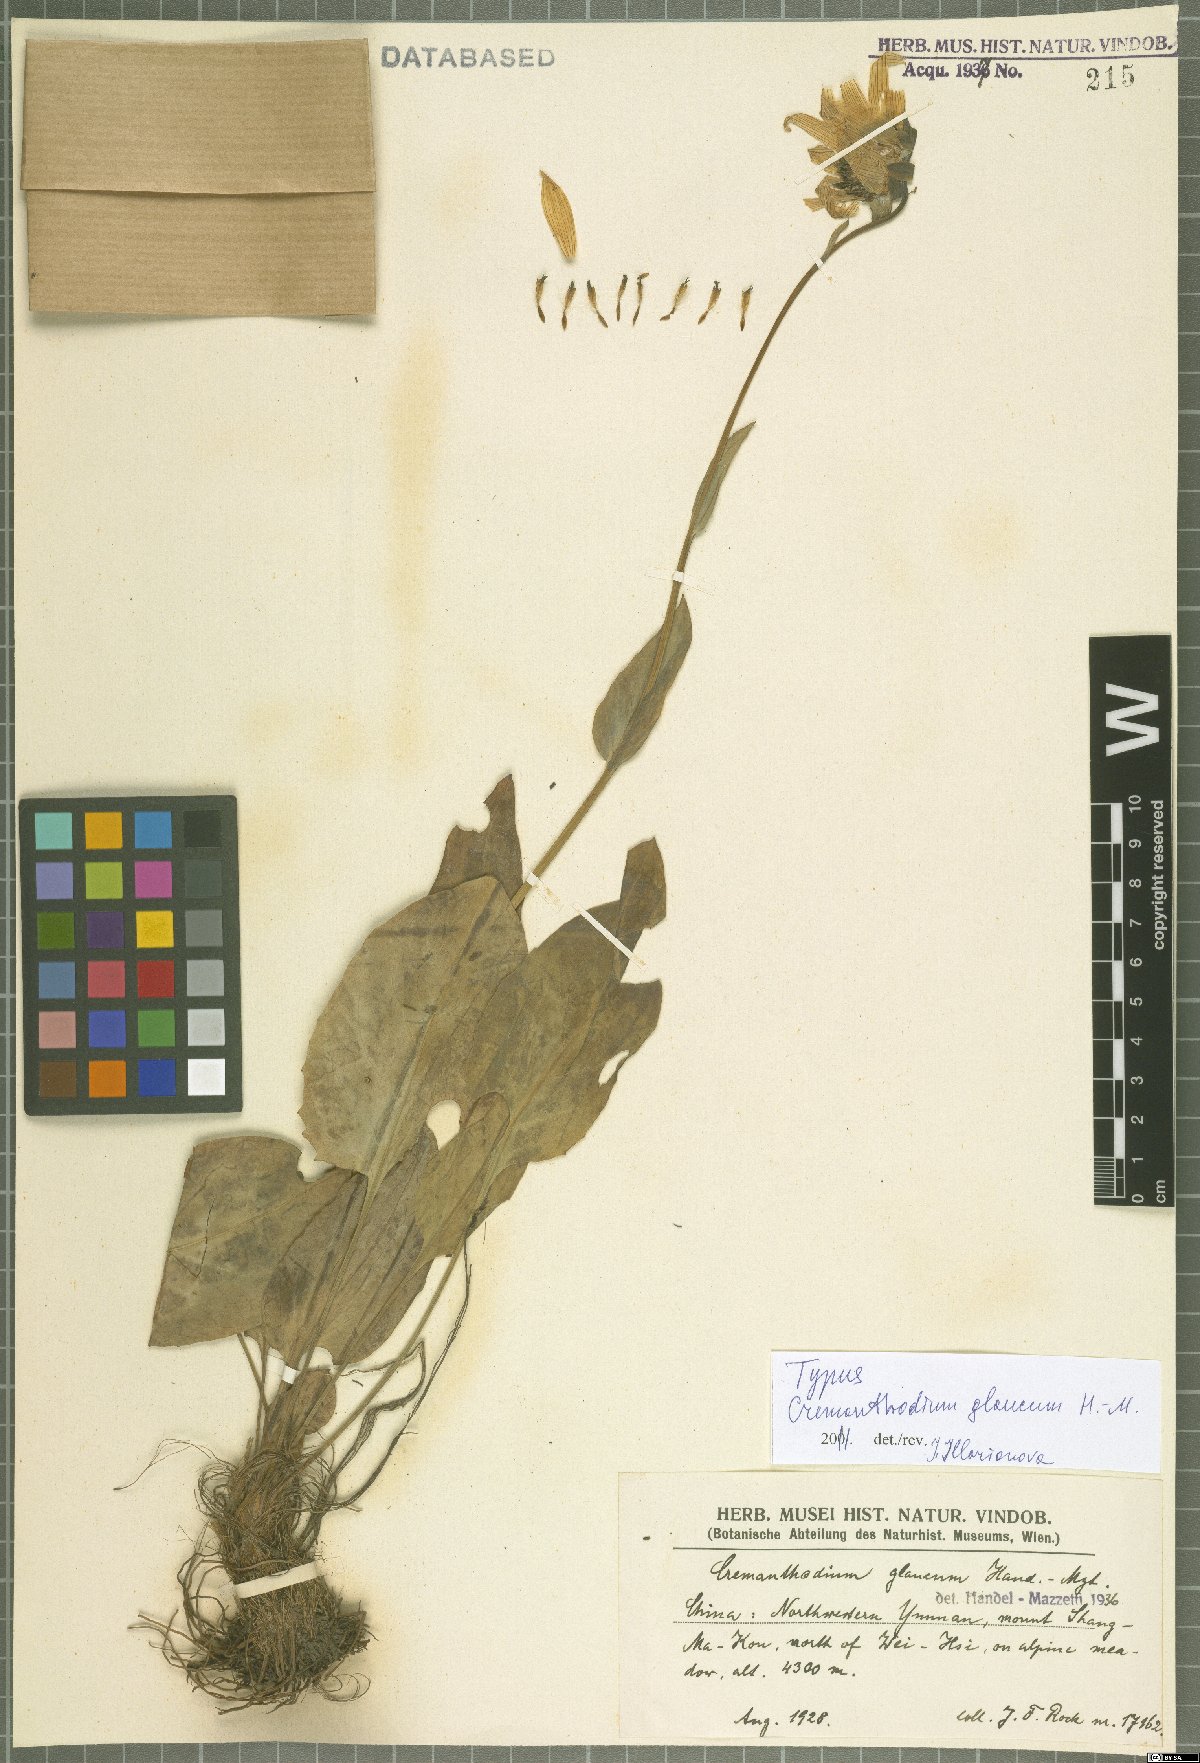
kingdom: Plantae
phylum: Tracheophyta
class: Magnoliopsida
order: Asterales
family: Asteraceae
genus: Cremanthodium
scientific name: Cremanthodium glaucum
